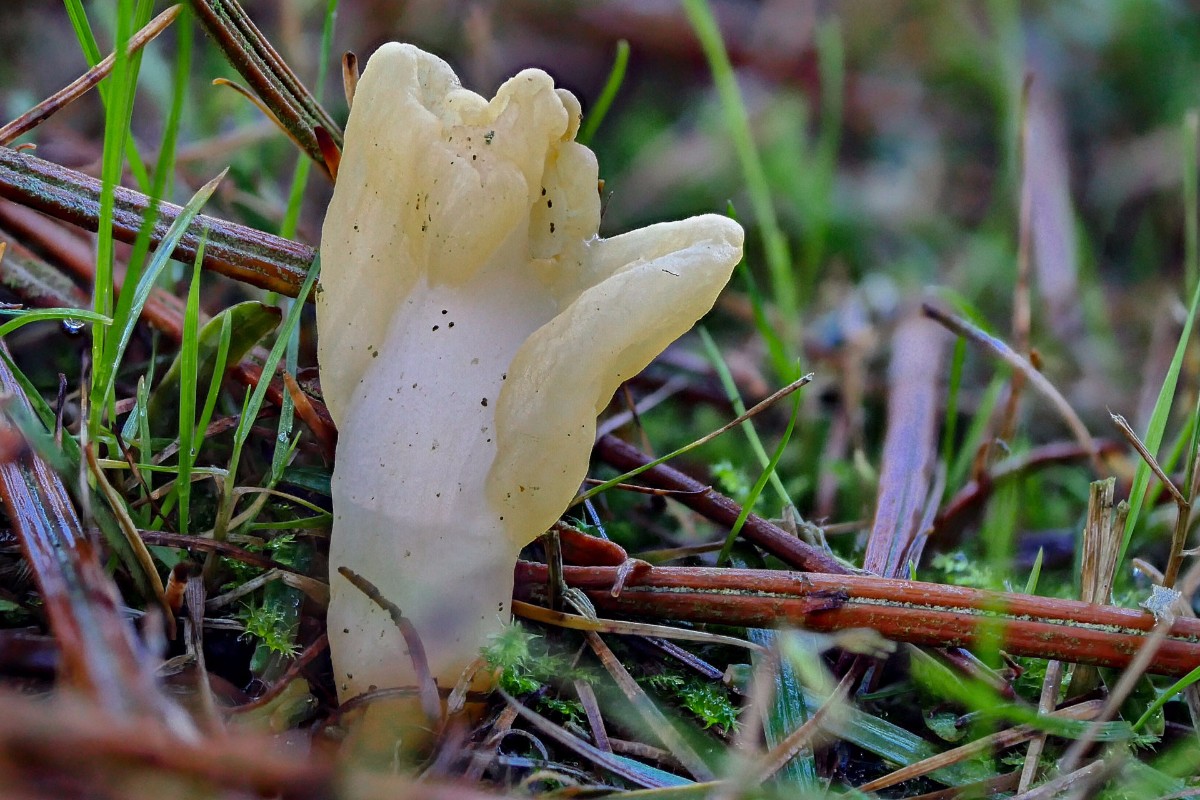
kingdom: Fungi
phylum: Ascomycota
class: Leotiomycetes
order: Rhytismatales
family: Cudoniaceae
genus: Spathularia
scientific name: Spathularia flavida
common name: gul spatelsvamp
